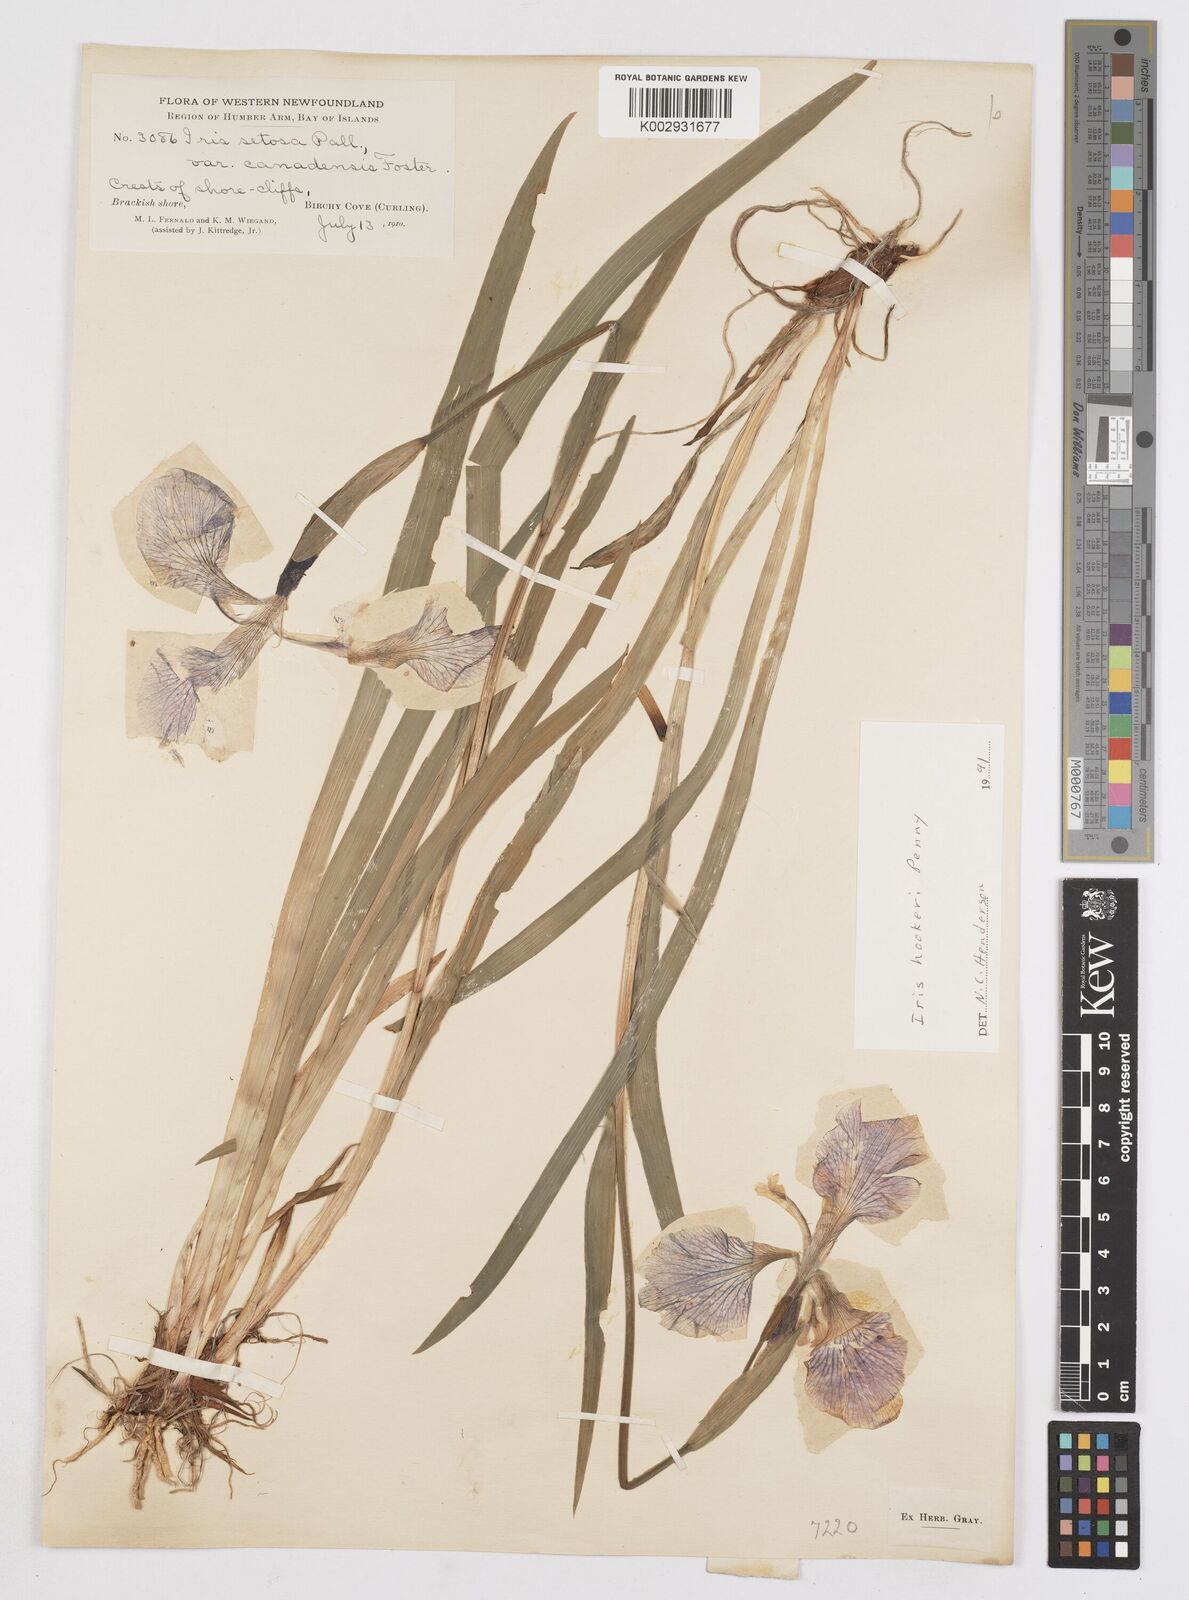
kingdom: Plantae
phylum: Tracheophyta
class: Liliopsida
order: Asparagales
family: Iridaceae
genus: Iris
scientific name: Iris setosa
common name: Arctic blue flag
